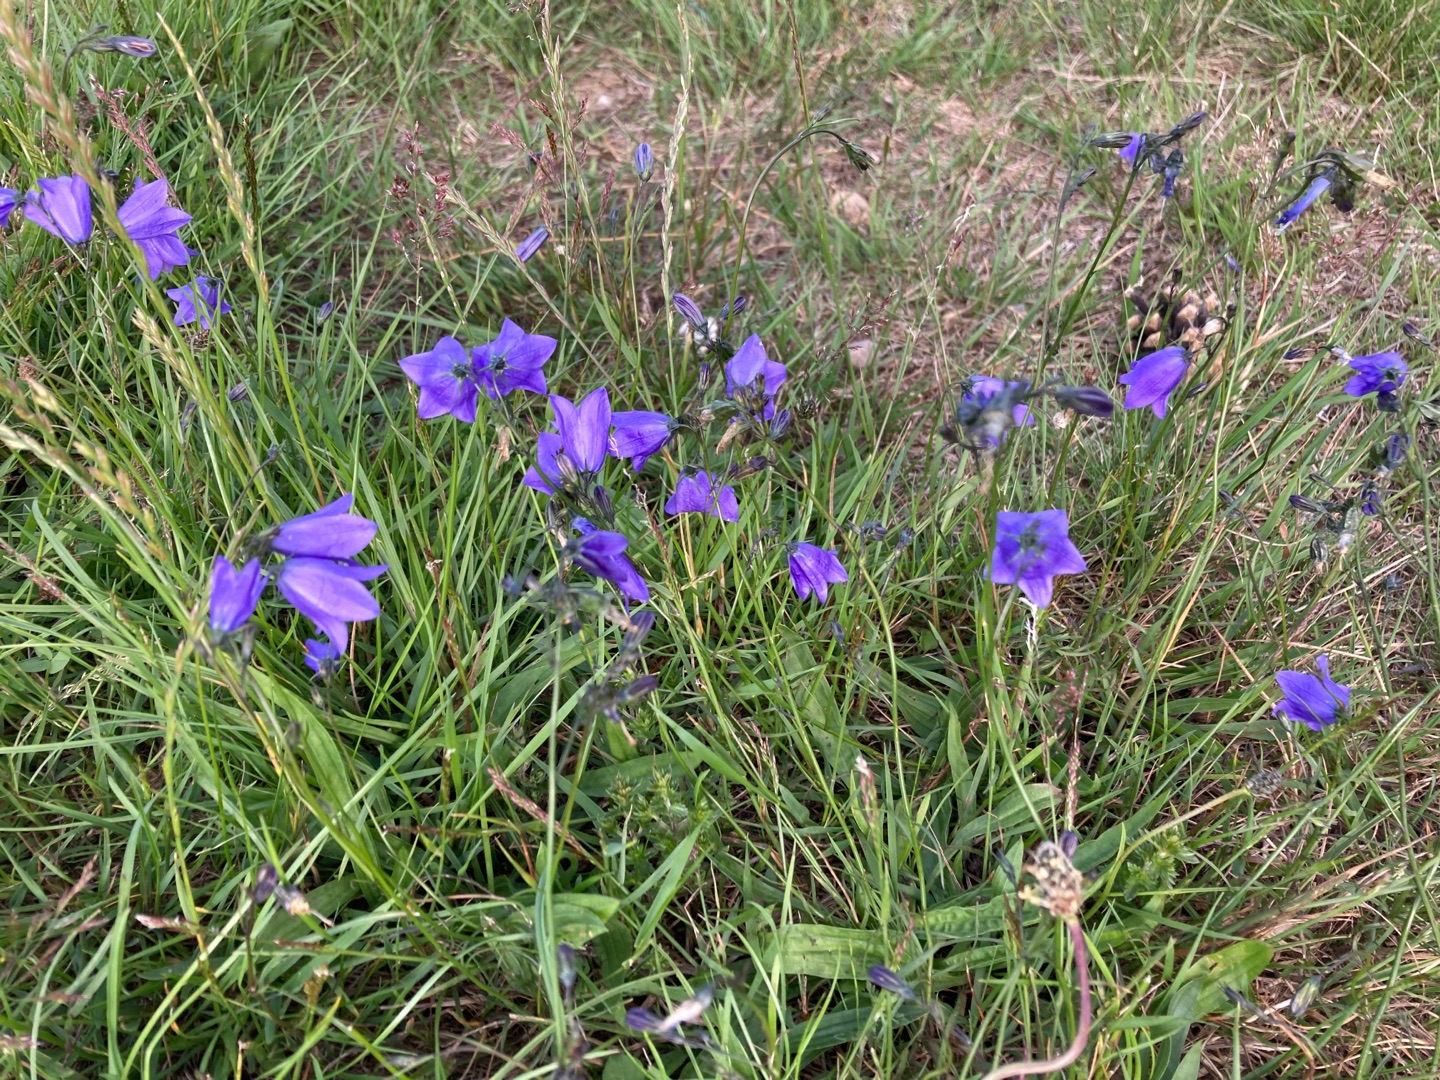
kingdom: Plantae
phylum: Tracheophyta
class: Magnoliopsida
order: Asterales
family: Campanulaceae
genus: Campanula
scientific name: Campanula rotundifolia
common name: Liden klokke
